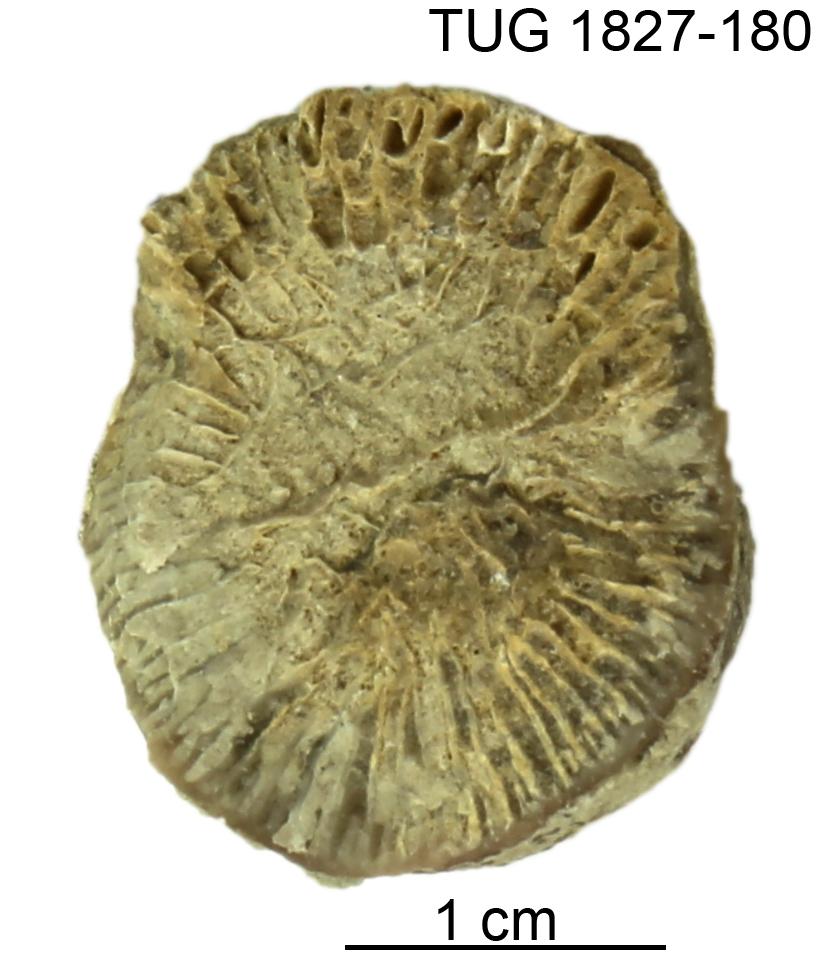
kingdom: Animalia
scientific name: Animalia
